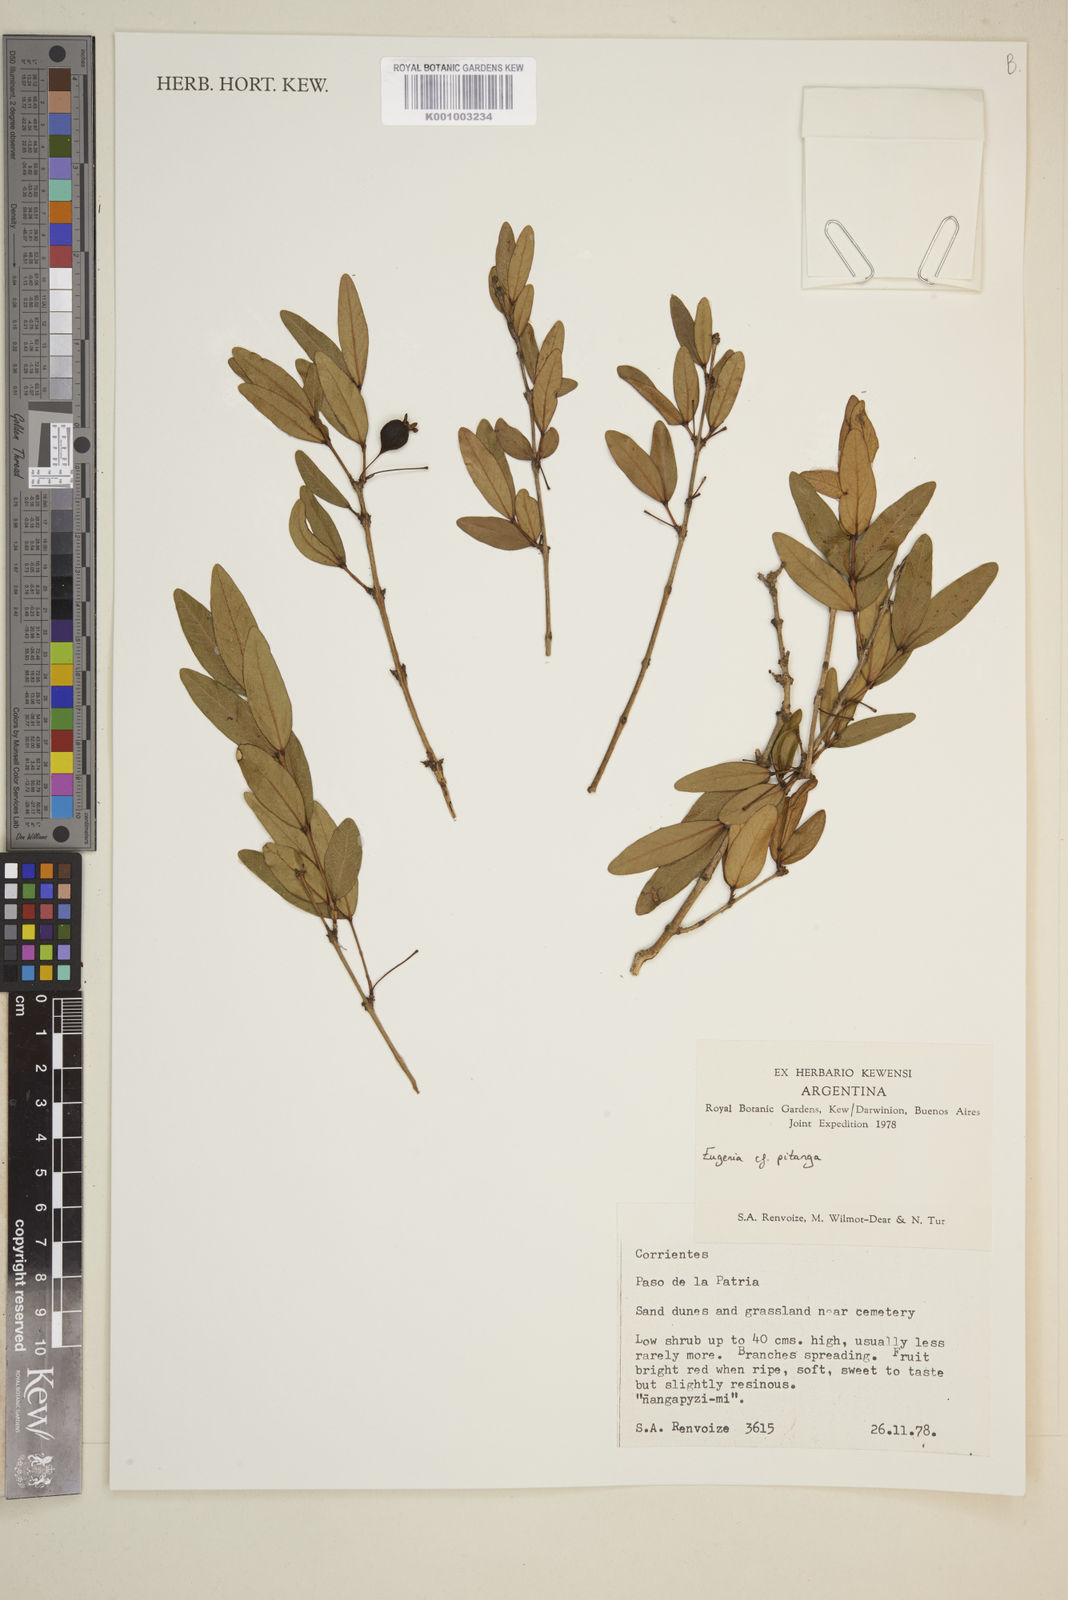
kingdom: Plantae
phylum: Tracheophyta
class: Magnoliopsida
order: Myrtales
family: Myrtaceae
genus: Eugenia
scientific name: Eugenia pitanga
